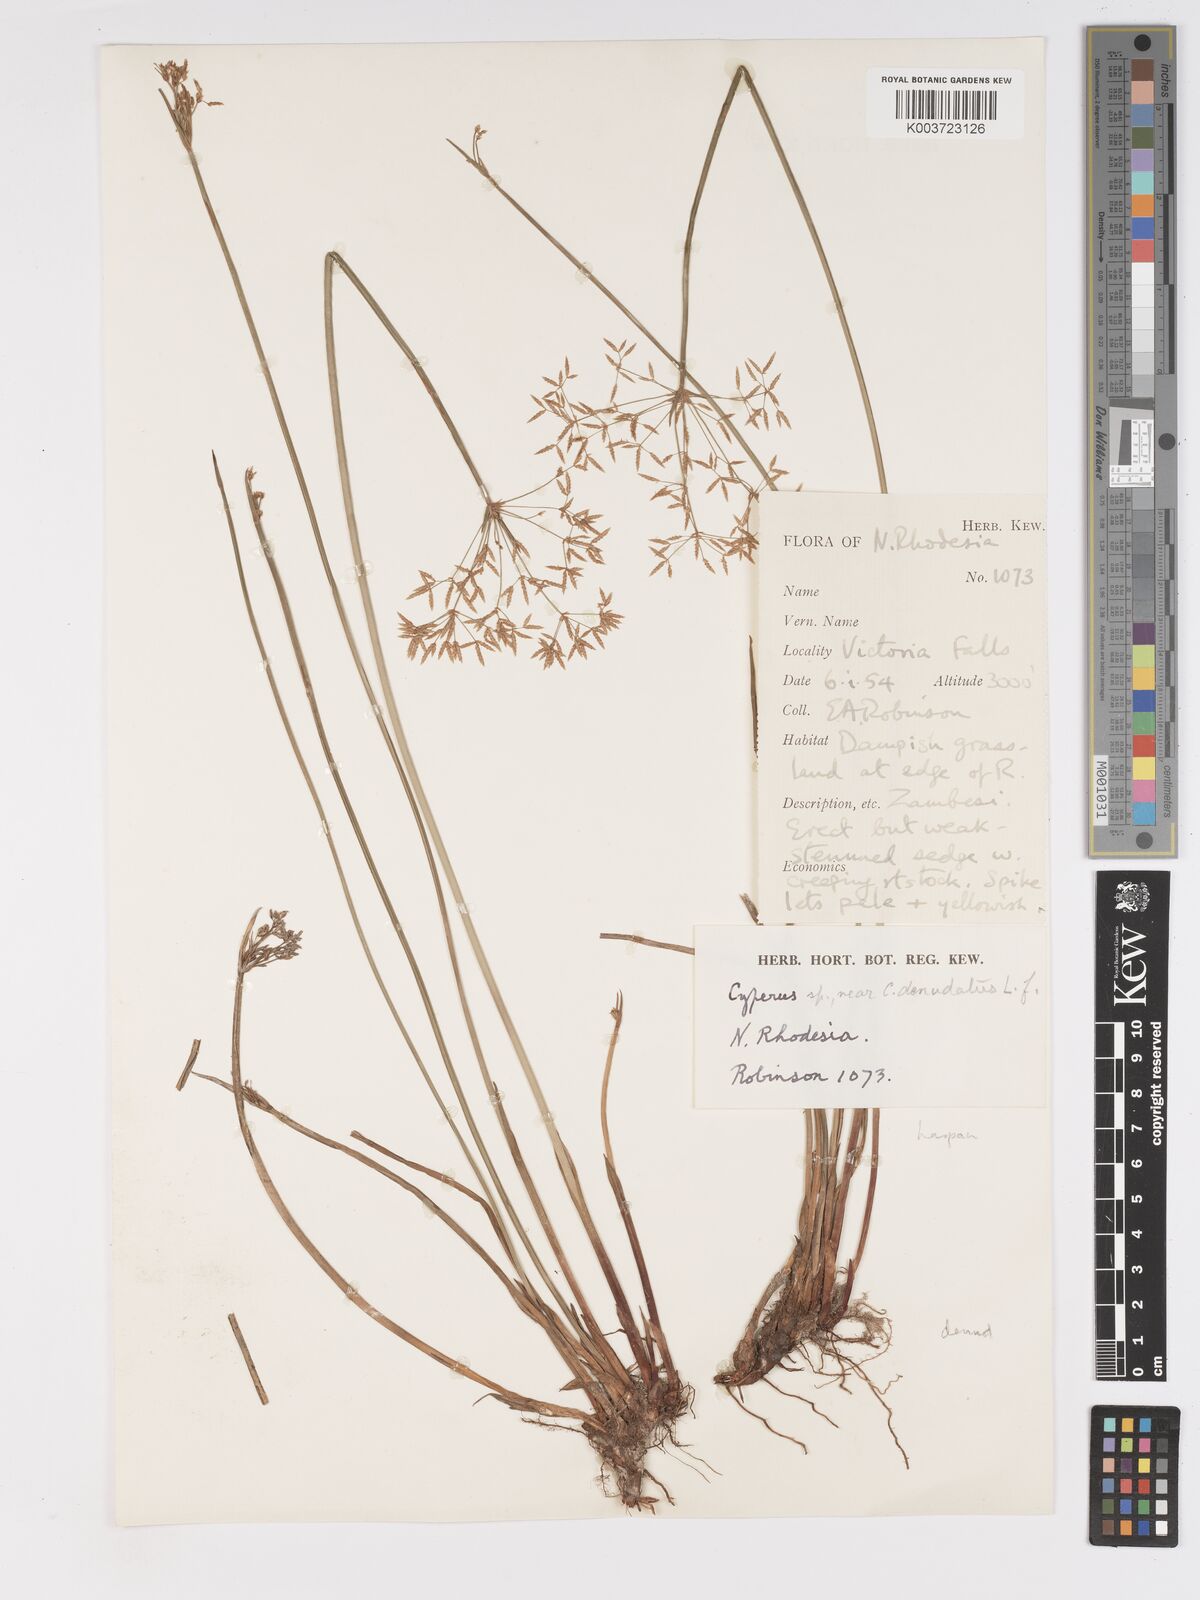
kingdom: Plantae
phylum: Tracheophyta
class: Liliopsida
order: Poales
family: Cyperaceae
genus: Cyperus
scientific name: Cyperus haspan
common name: Haspan flatsedge
